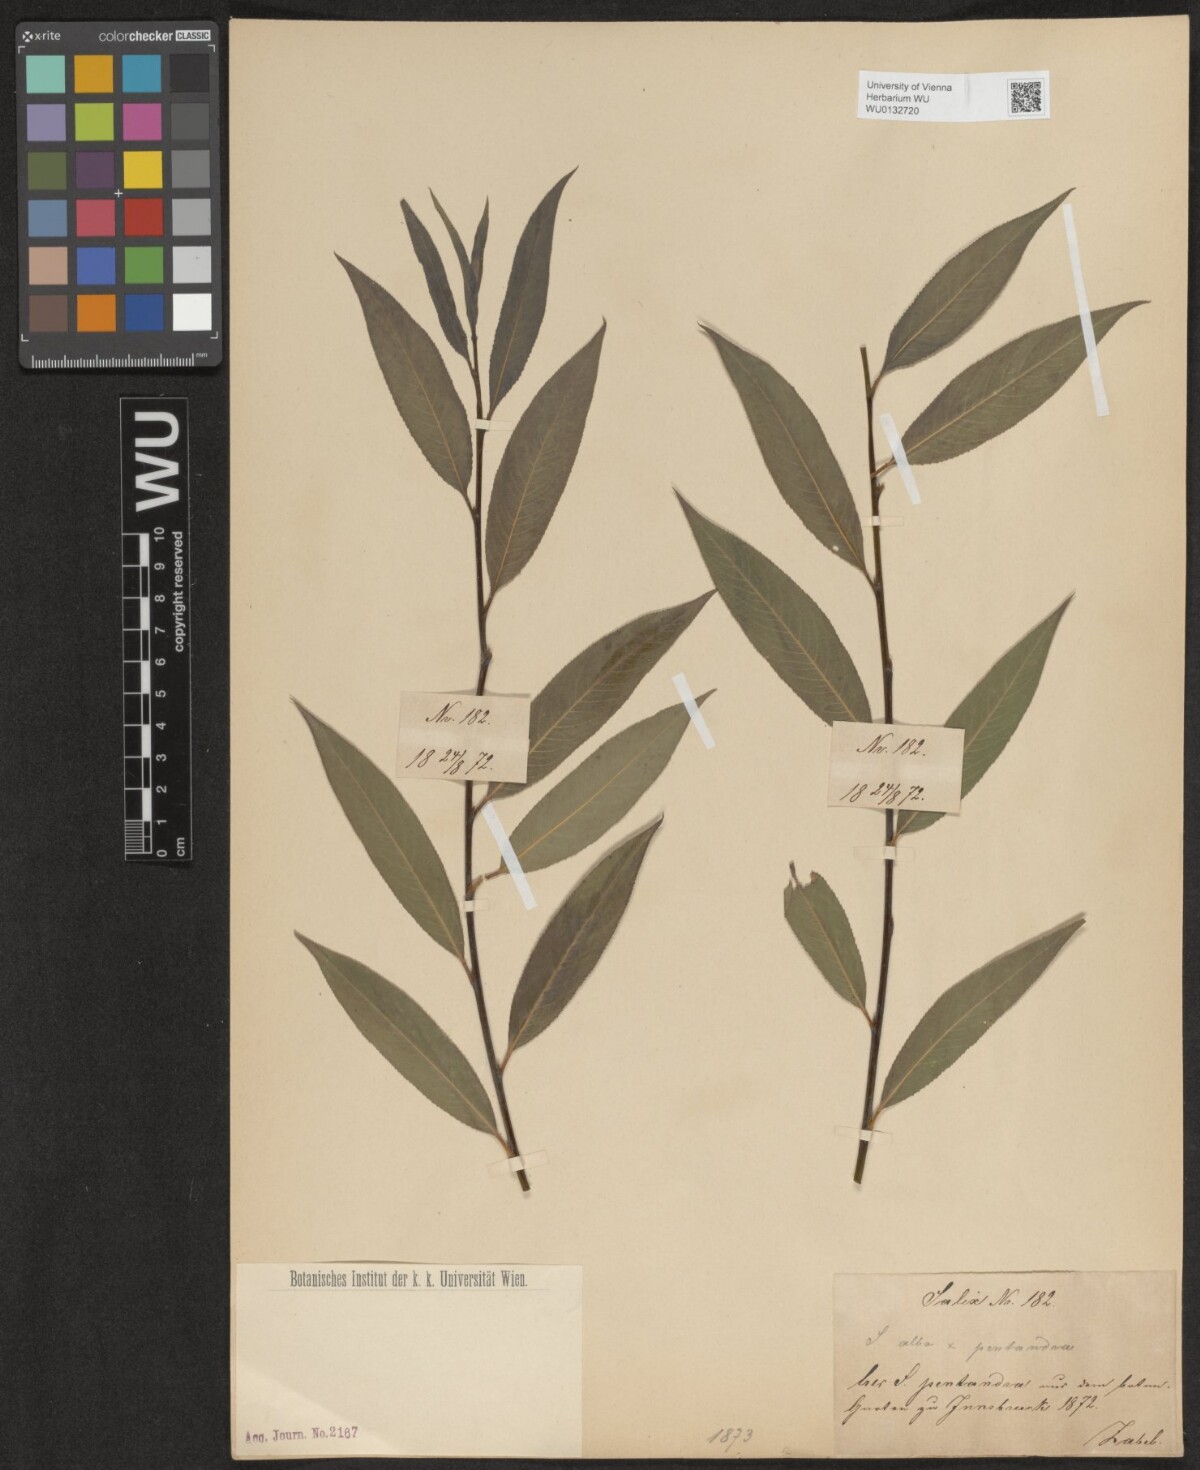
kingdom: Plantae
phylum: Tracheophyta
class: Magnoliopsida
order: Malpighiales
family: Salicaceae
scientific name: Salicaceae
